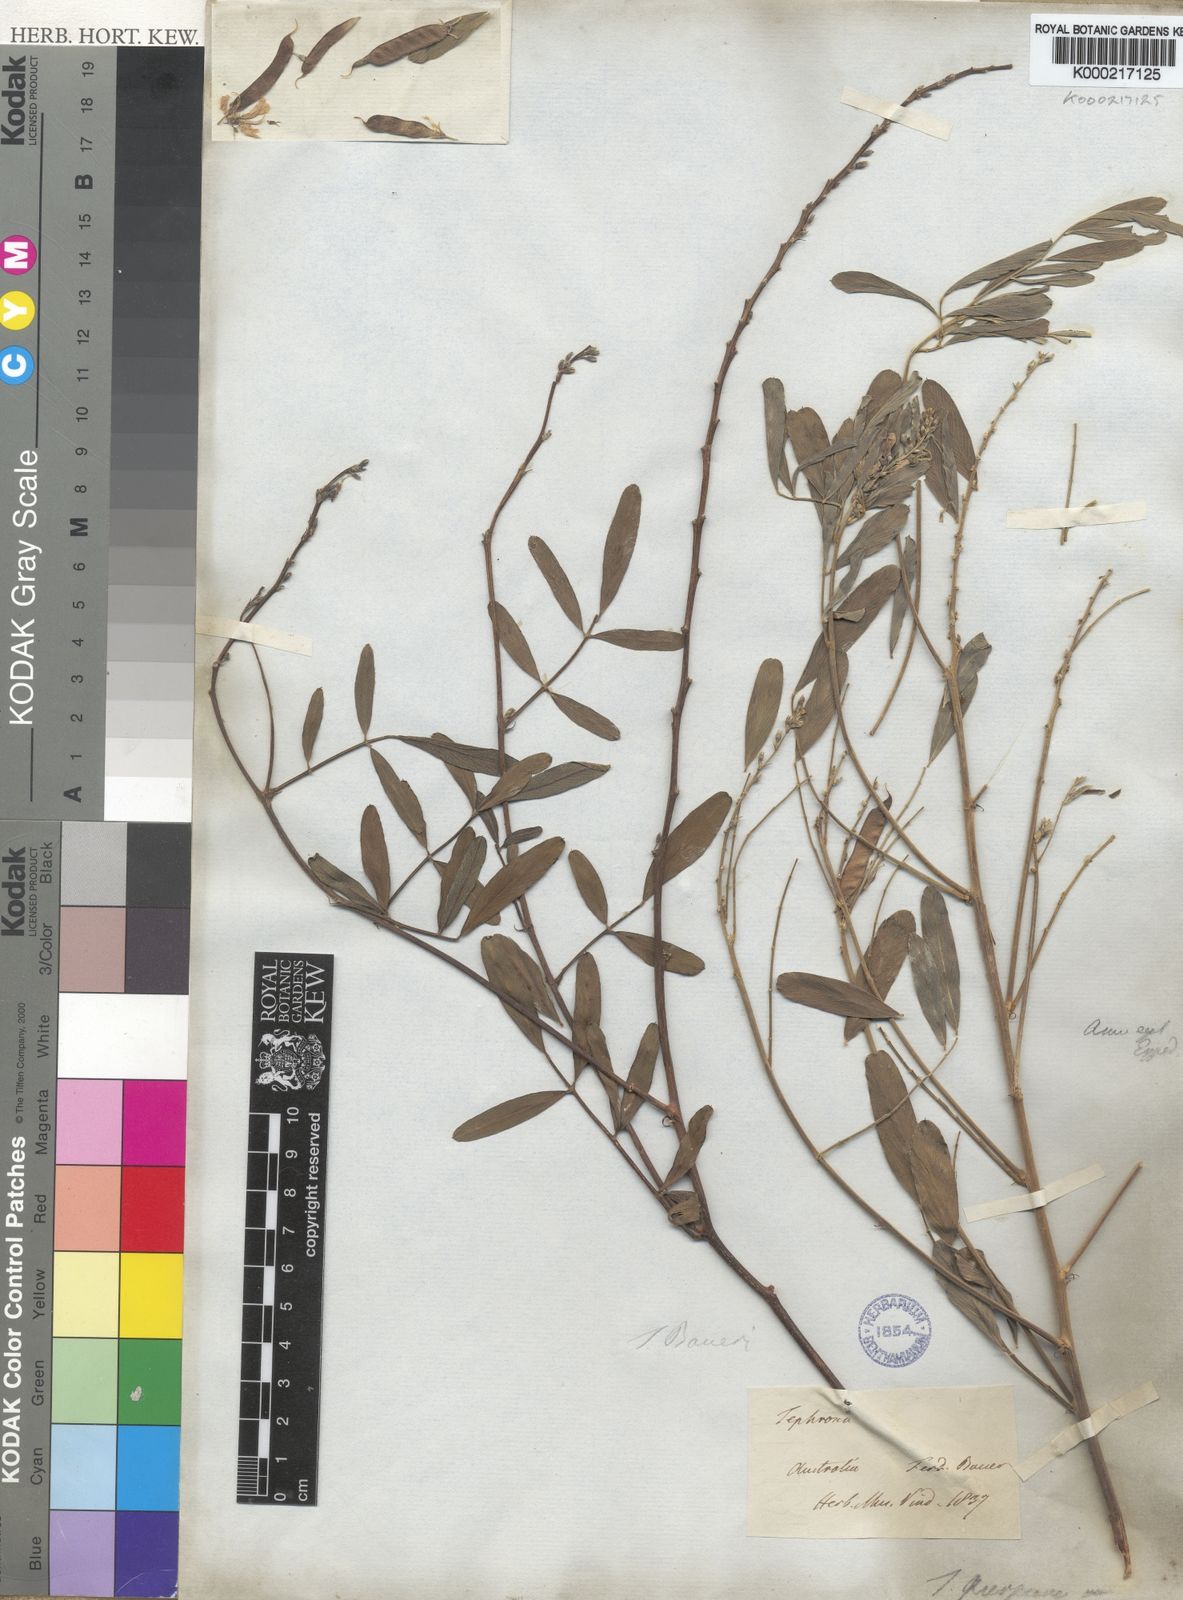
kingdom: Plantae
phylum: Tracheophyta
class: Magnoliopsida
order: Fabales
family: Fabaceae
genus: Tephrosia
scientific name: Tephrosia
